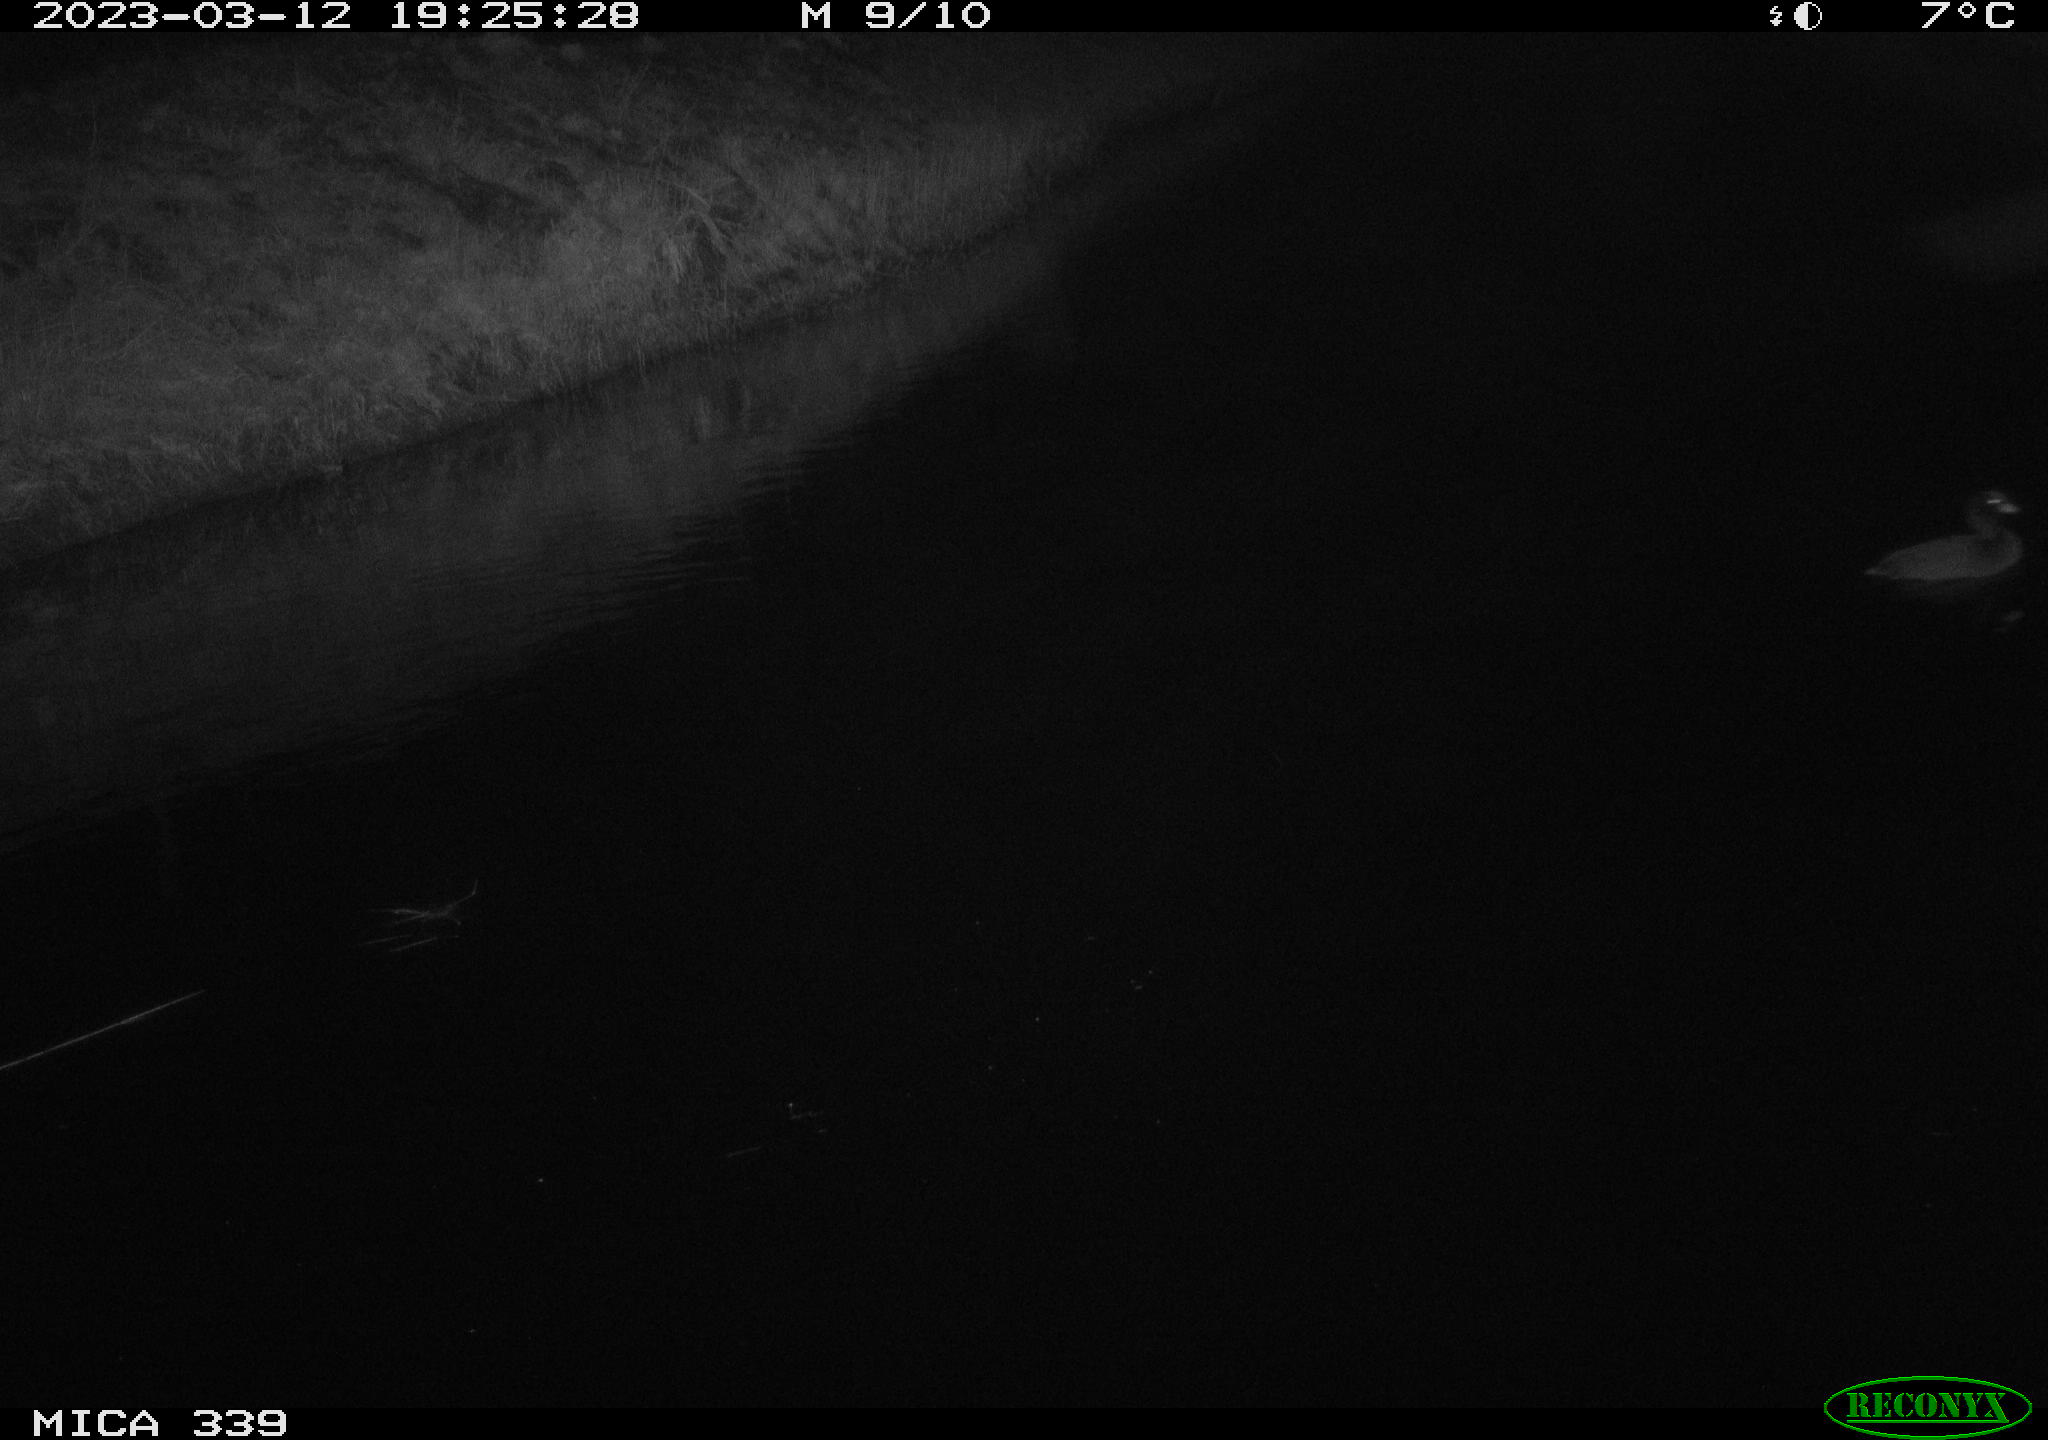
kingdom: Animalia
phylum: Chordata
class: Aves
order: Gruiformes
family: Rallidae
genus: Fulica
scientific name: Fulica atra
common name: Eurasian coot
